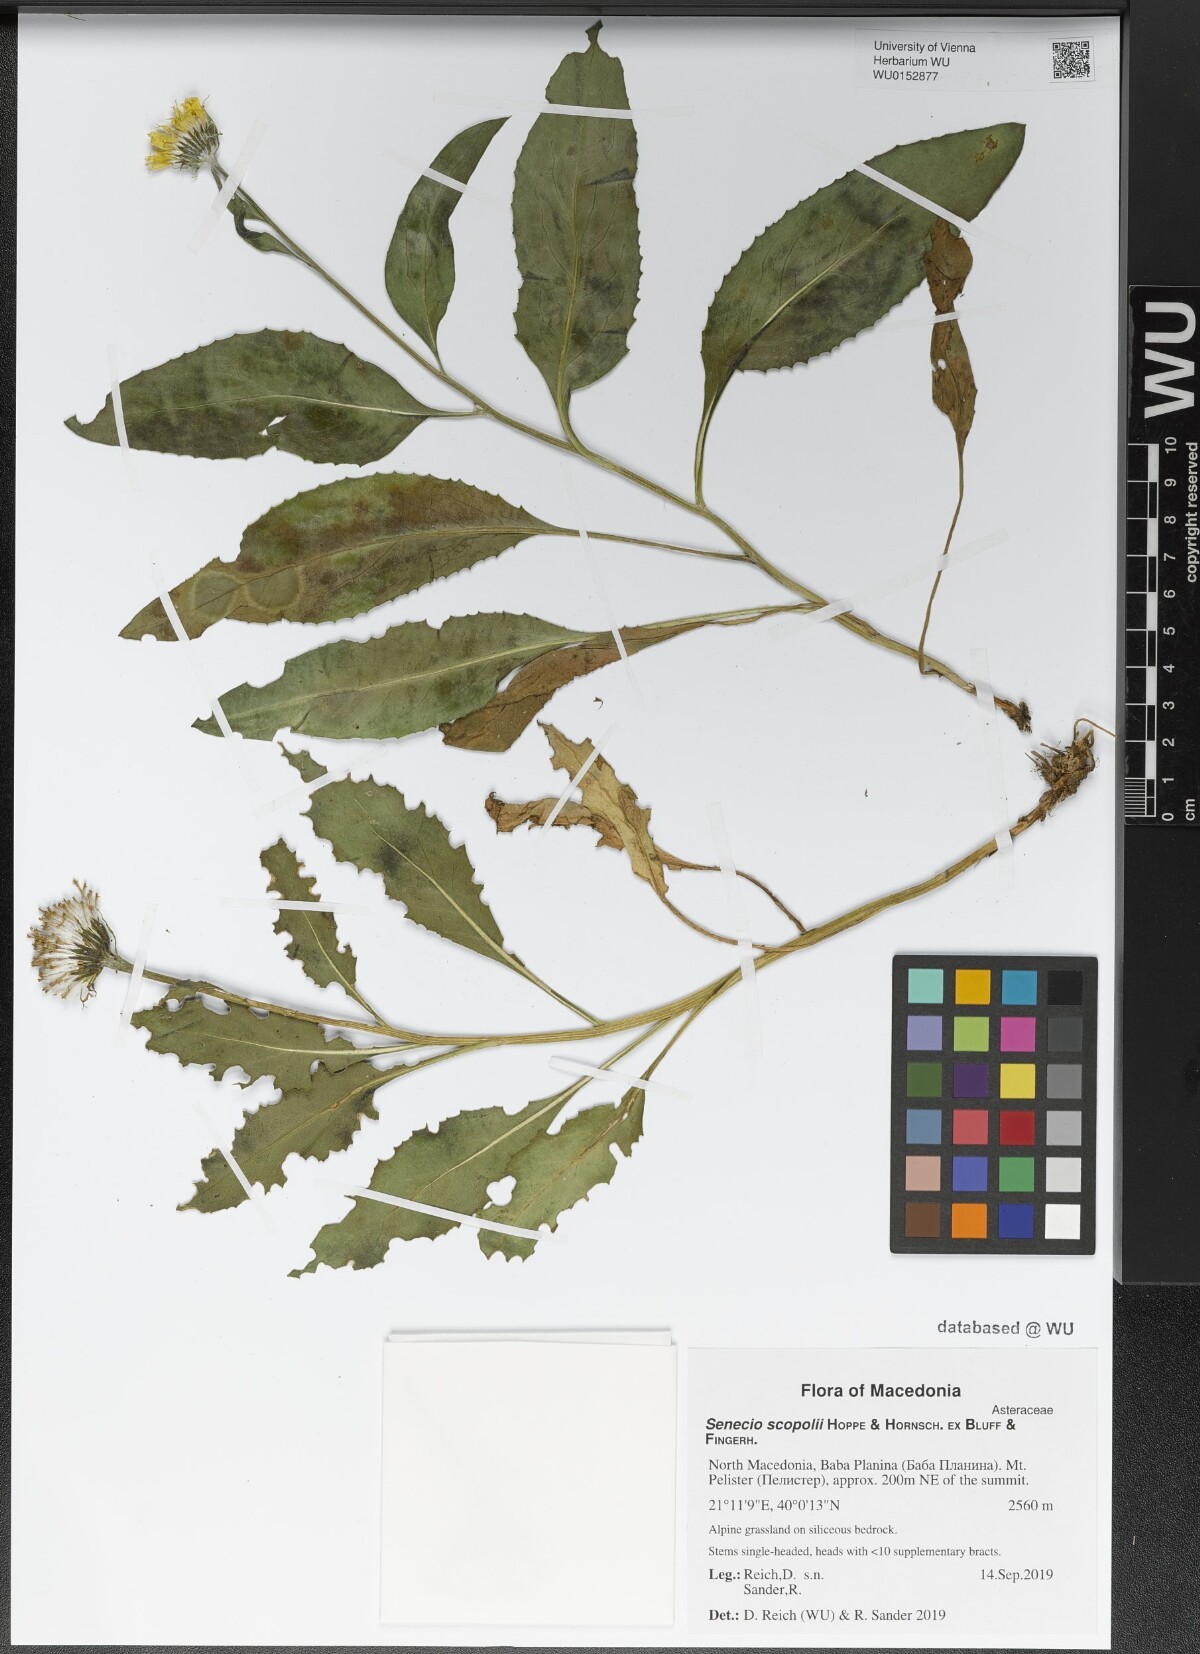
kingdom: Plantae
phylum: Tracheophyta
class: Magnoliopsida
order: Asterales
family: Asteraceae
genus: Senecio
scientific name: Senecio scopolii
